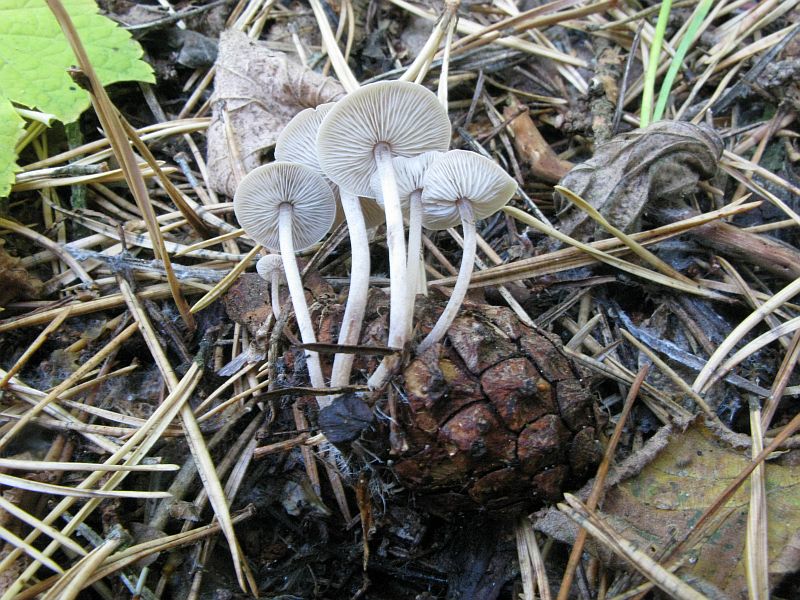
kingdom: Fungi
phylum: Basidiomycota
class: Agaricomycetes
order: Agaricales
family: Marasmiaceae
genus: Baeospora
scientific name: Baeospora myosura
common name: koglebruskhat
